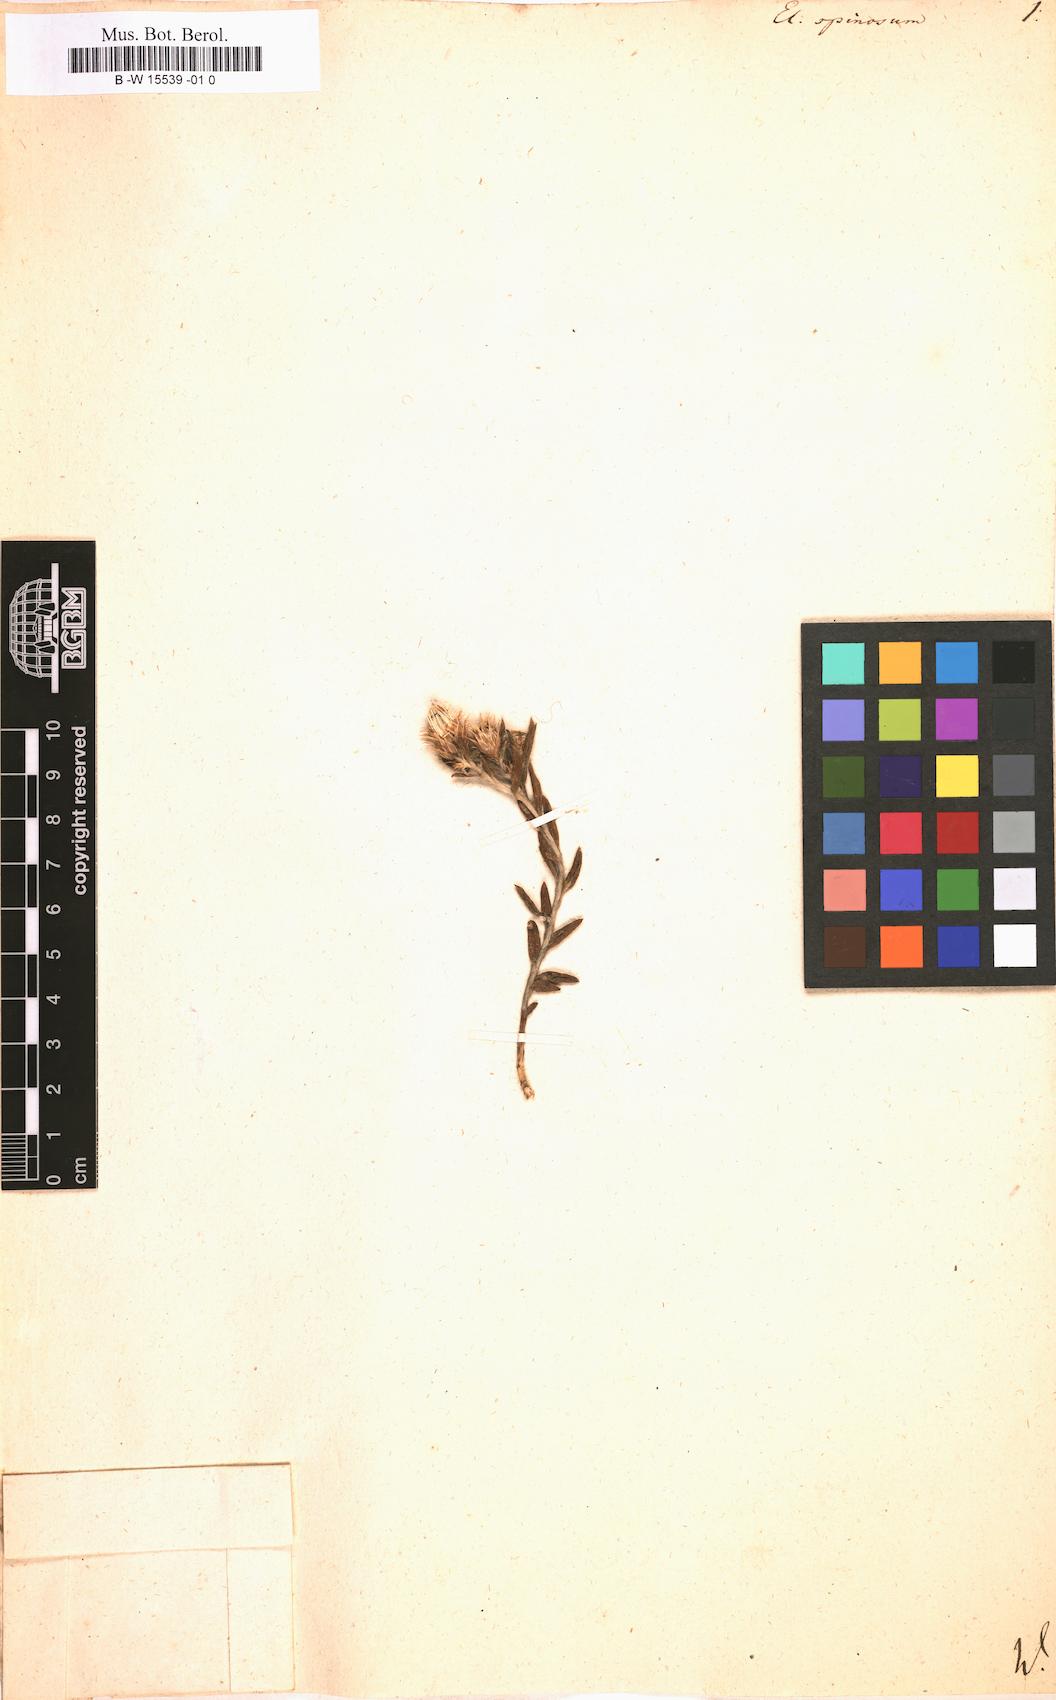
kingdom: Plantae
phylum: Tracheophyta
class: Magnoliopsida
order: Asterales
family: Asteraceae
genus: Helichrysum
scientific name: Helichrysum
